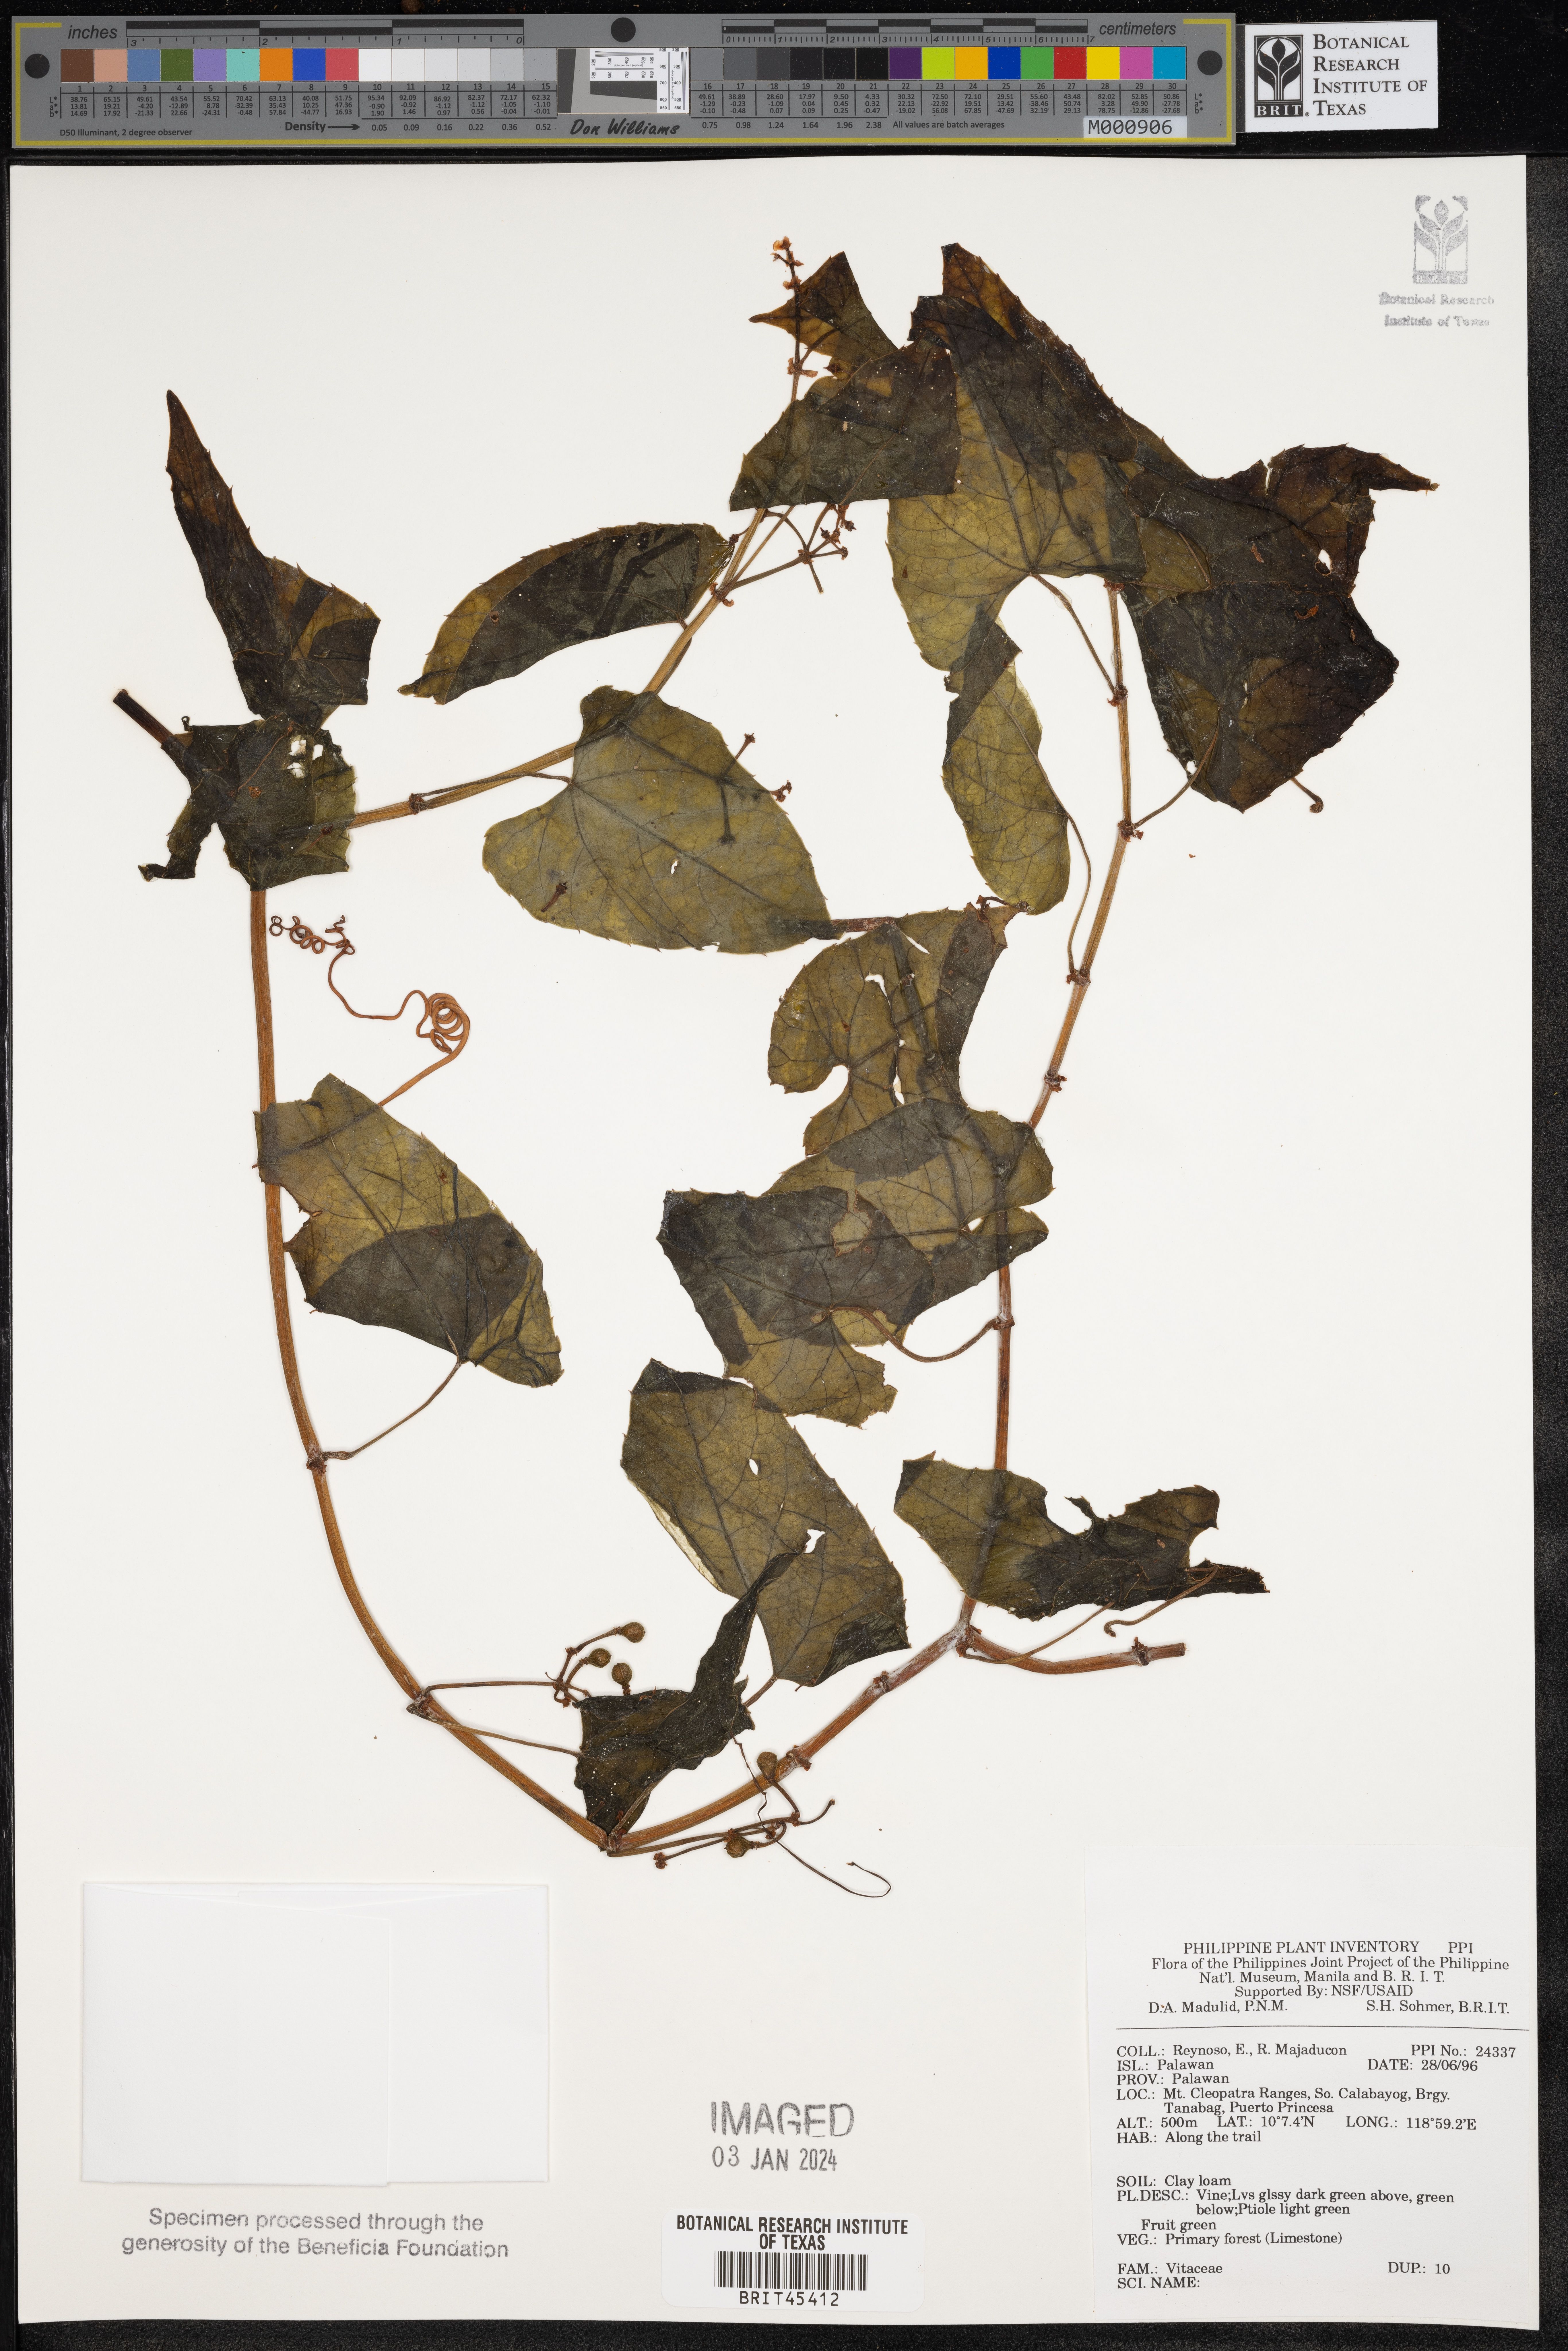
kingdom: Plantae
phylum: Tracheophyta
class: Magnoliopsida
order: Vitales
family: Vitaceae
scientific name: Vitaceae
